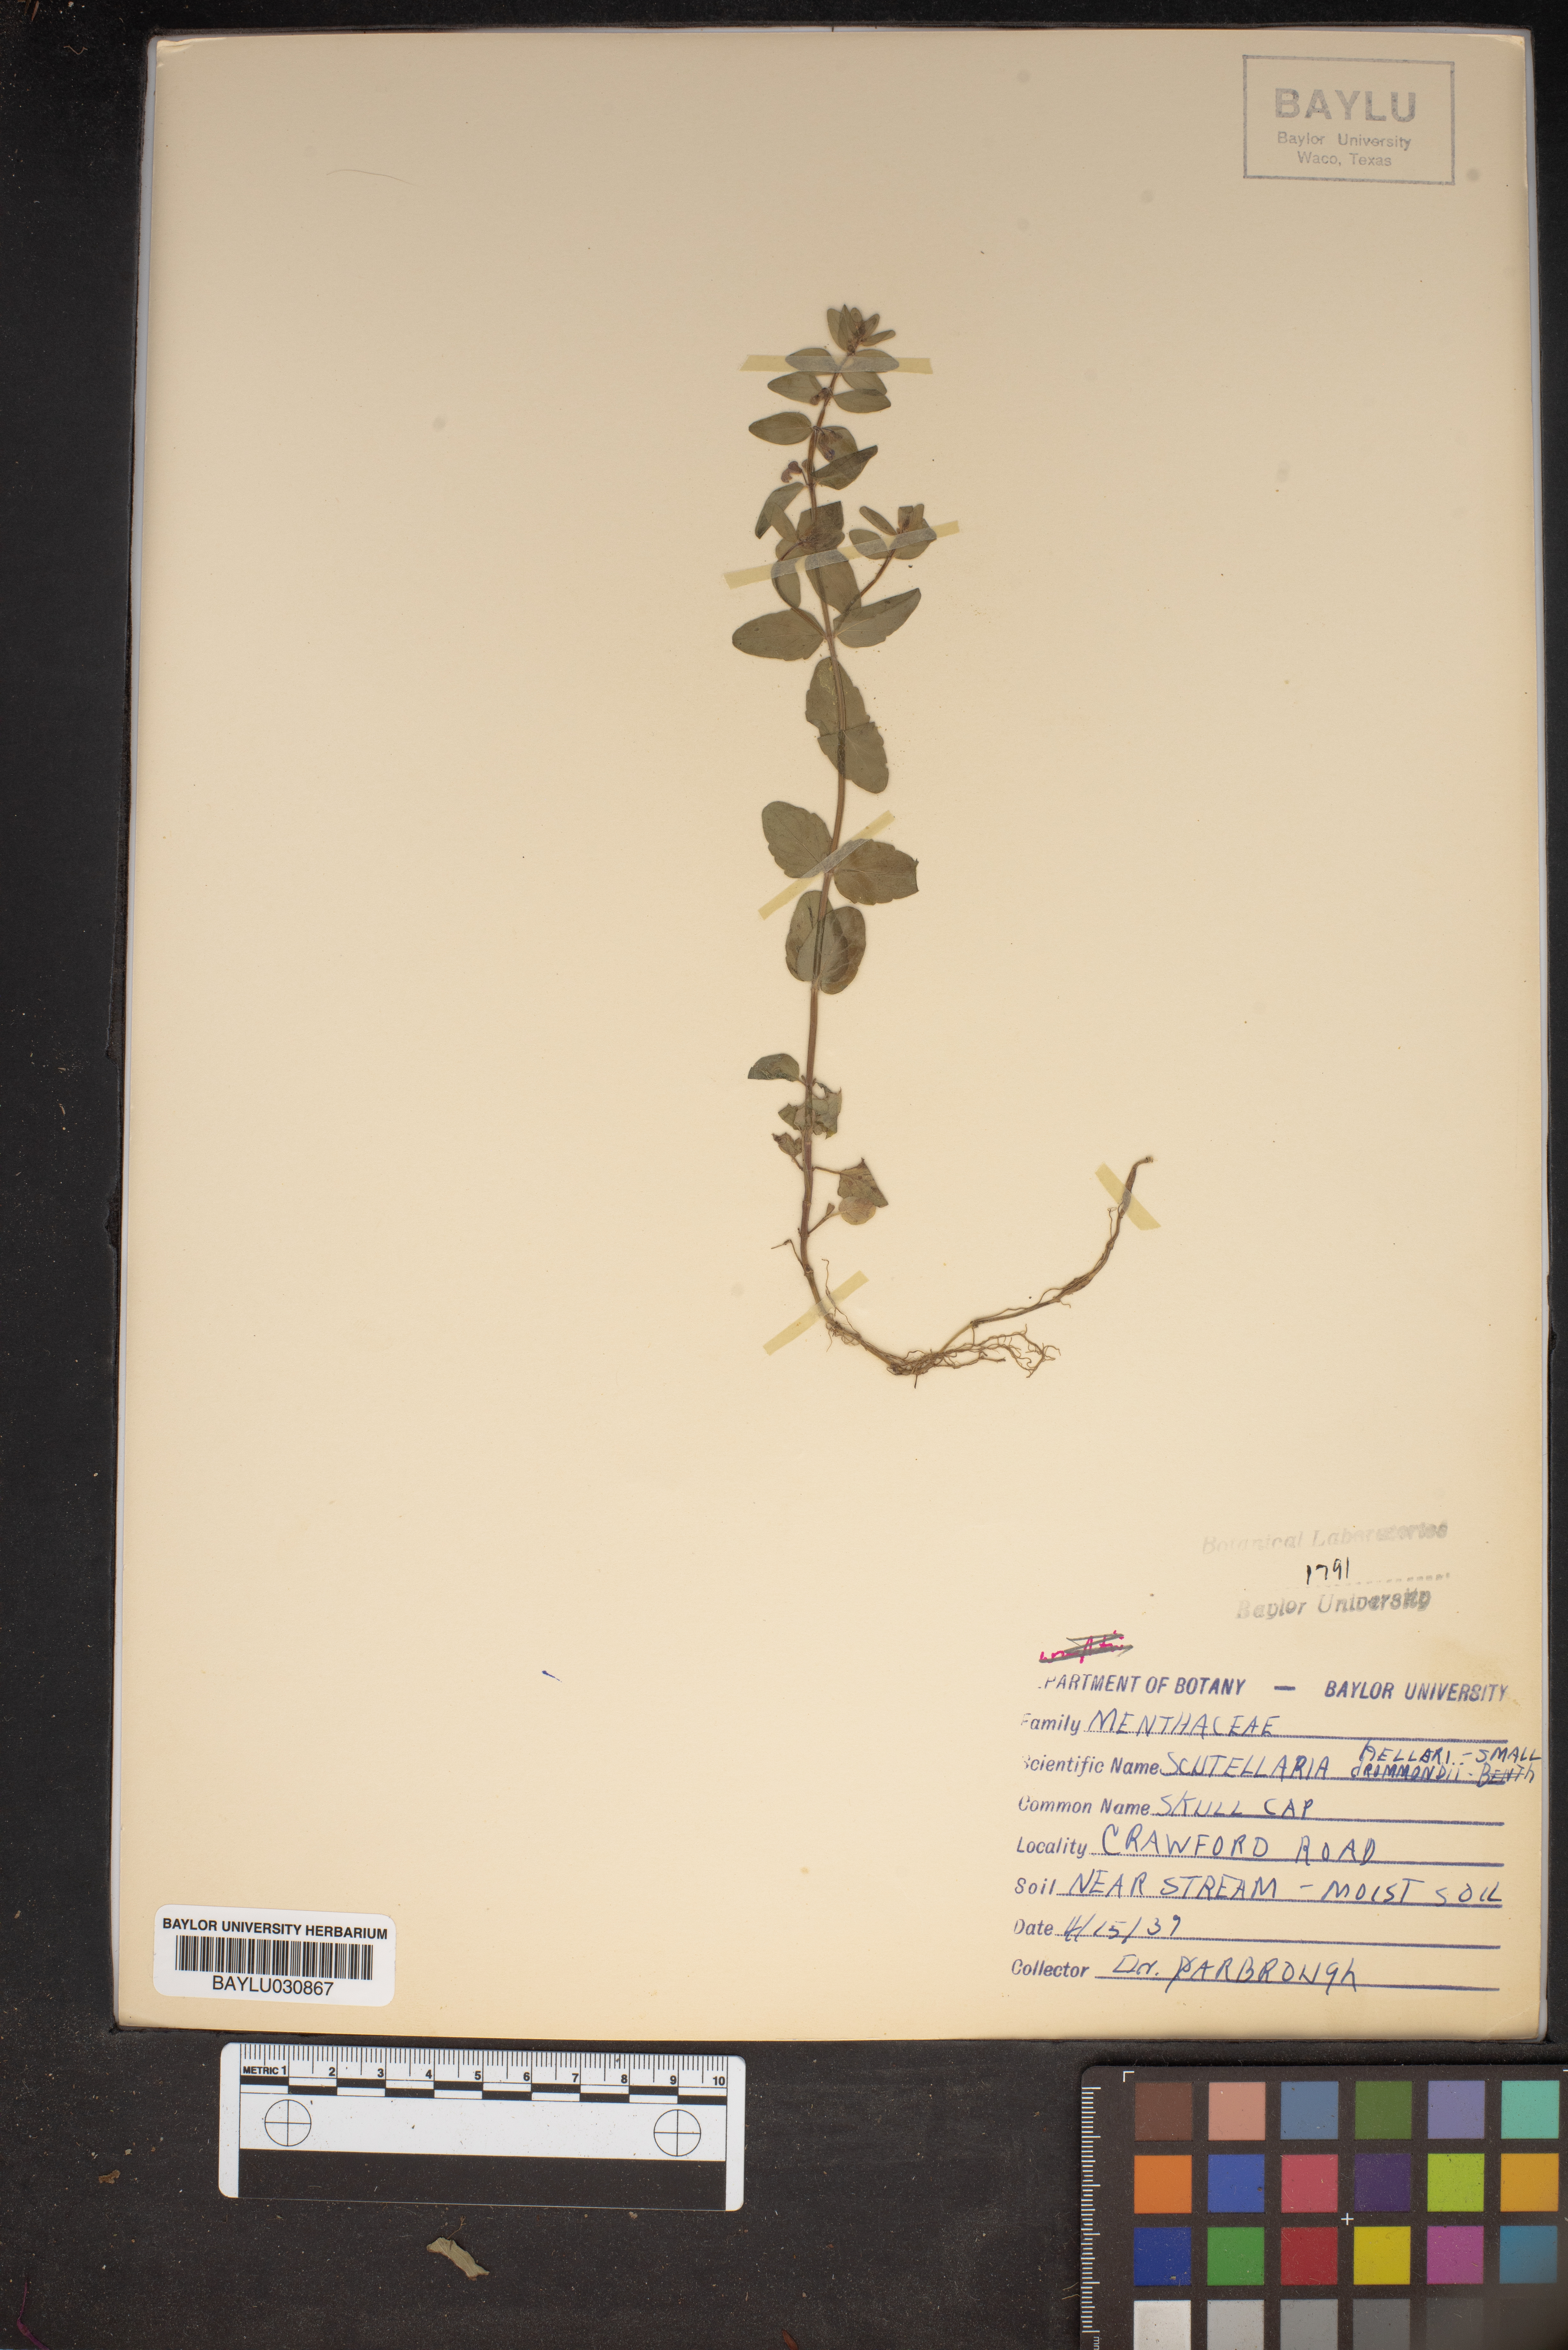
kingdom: Plantae
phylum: Tracheophyta
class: Magnoliopsida
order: Lamiales
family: Lamiaceae
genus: Scutellaria
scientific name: Scutellaria drummondii
